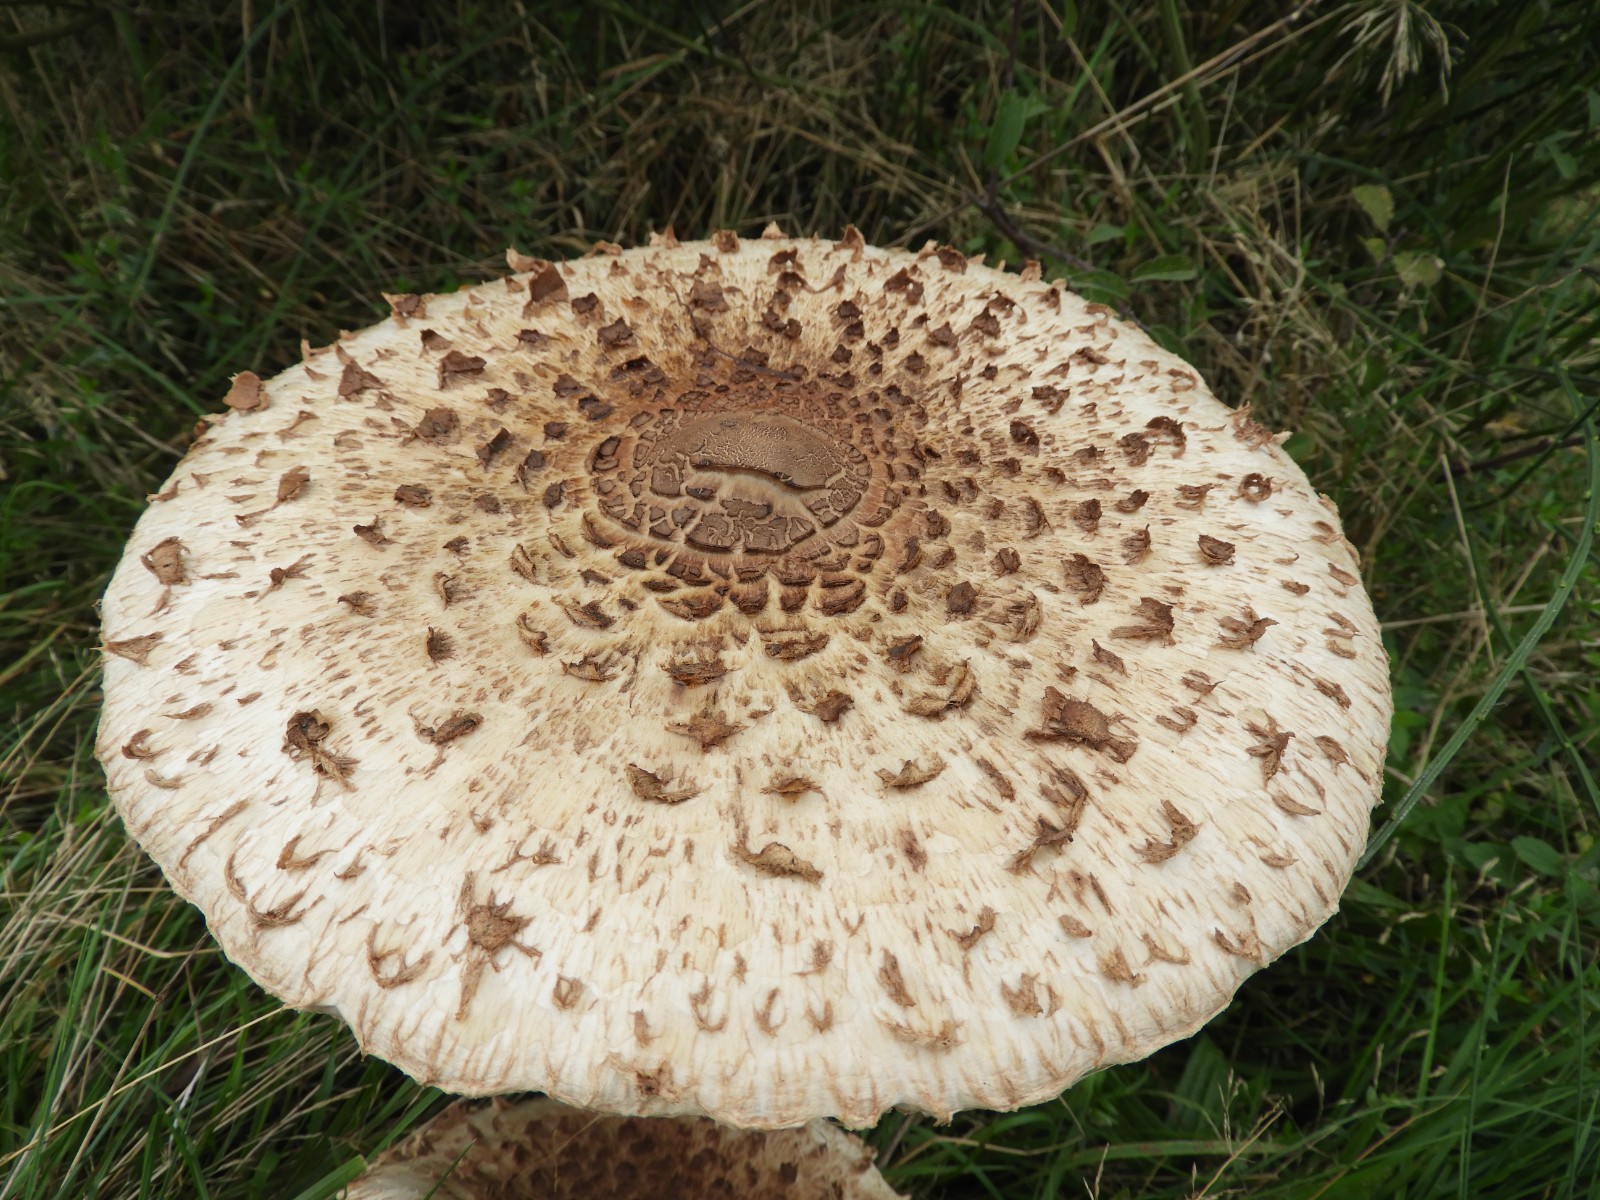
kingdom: Fungi
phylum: Basidiomycota
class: Agaricomycetes
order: Agaricales
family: Agaricaceae
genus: Macrolepiota
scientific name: Macrolepiota procera
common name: stor kæmpeparasolhat
